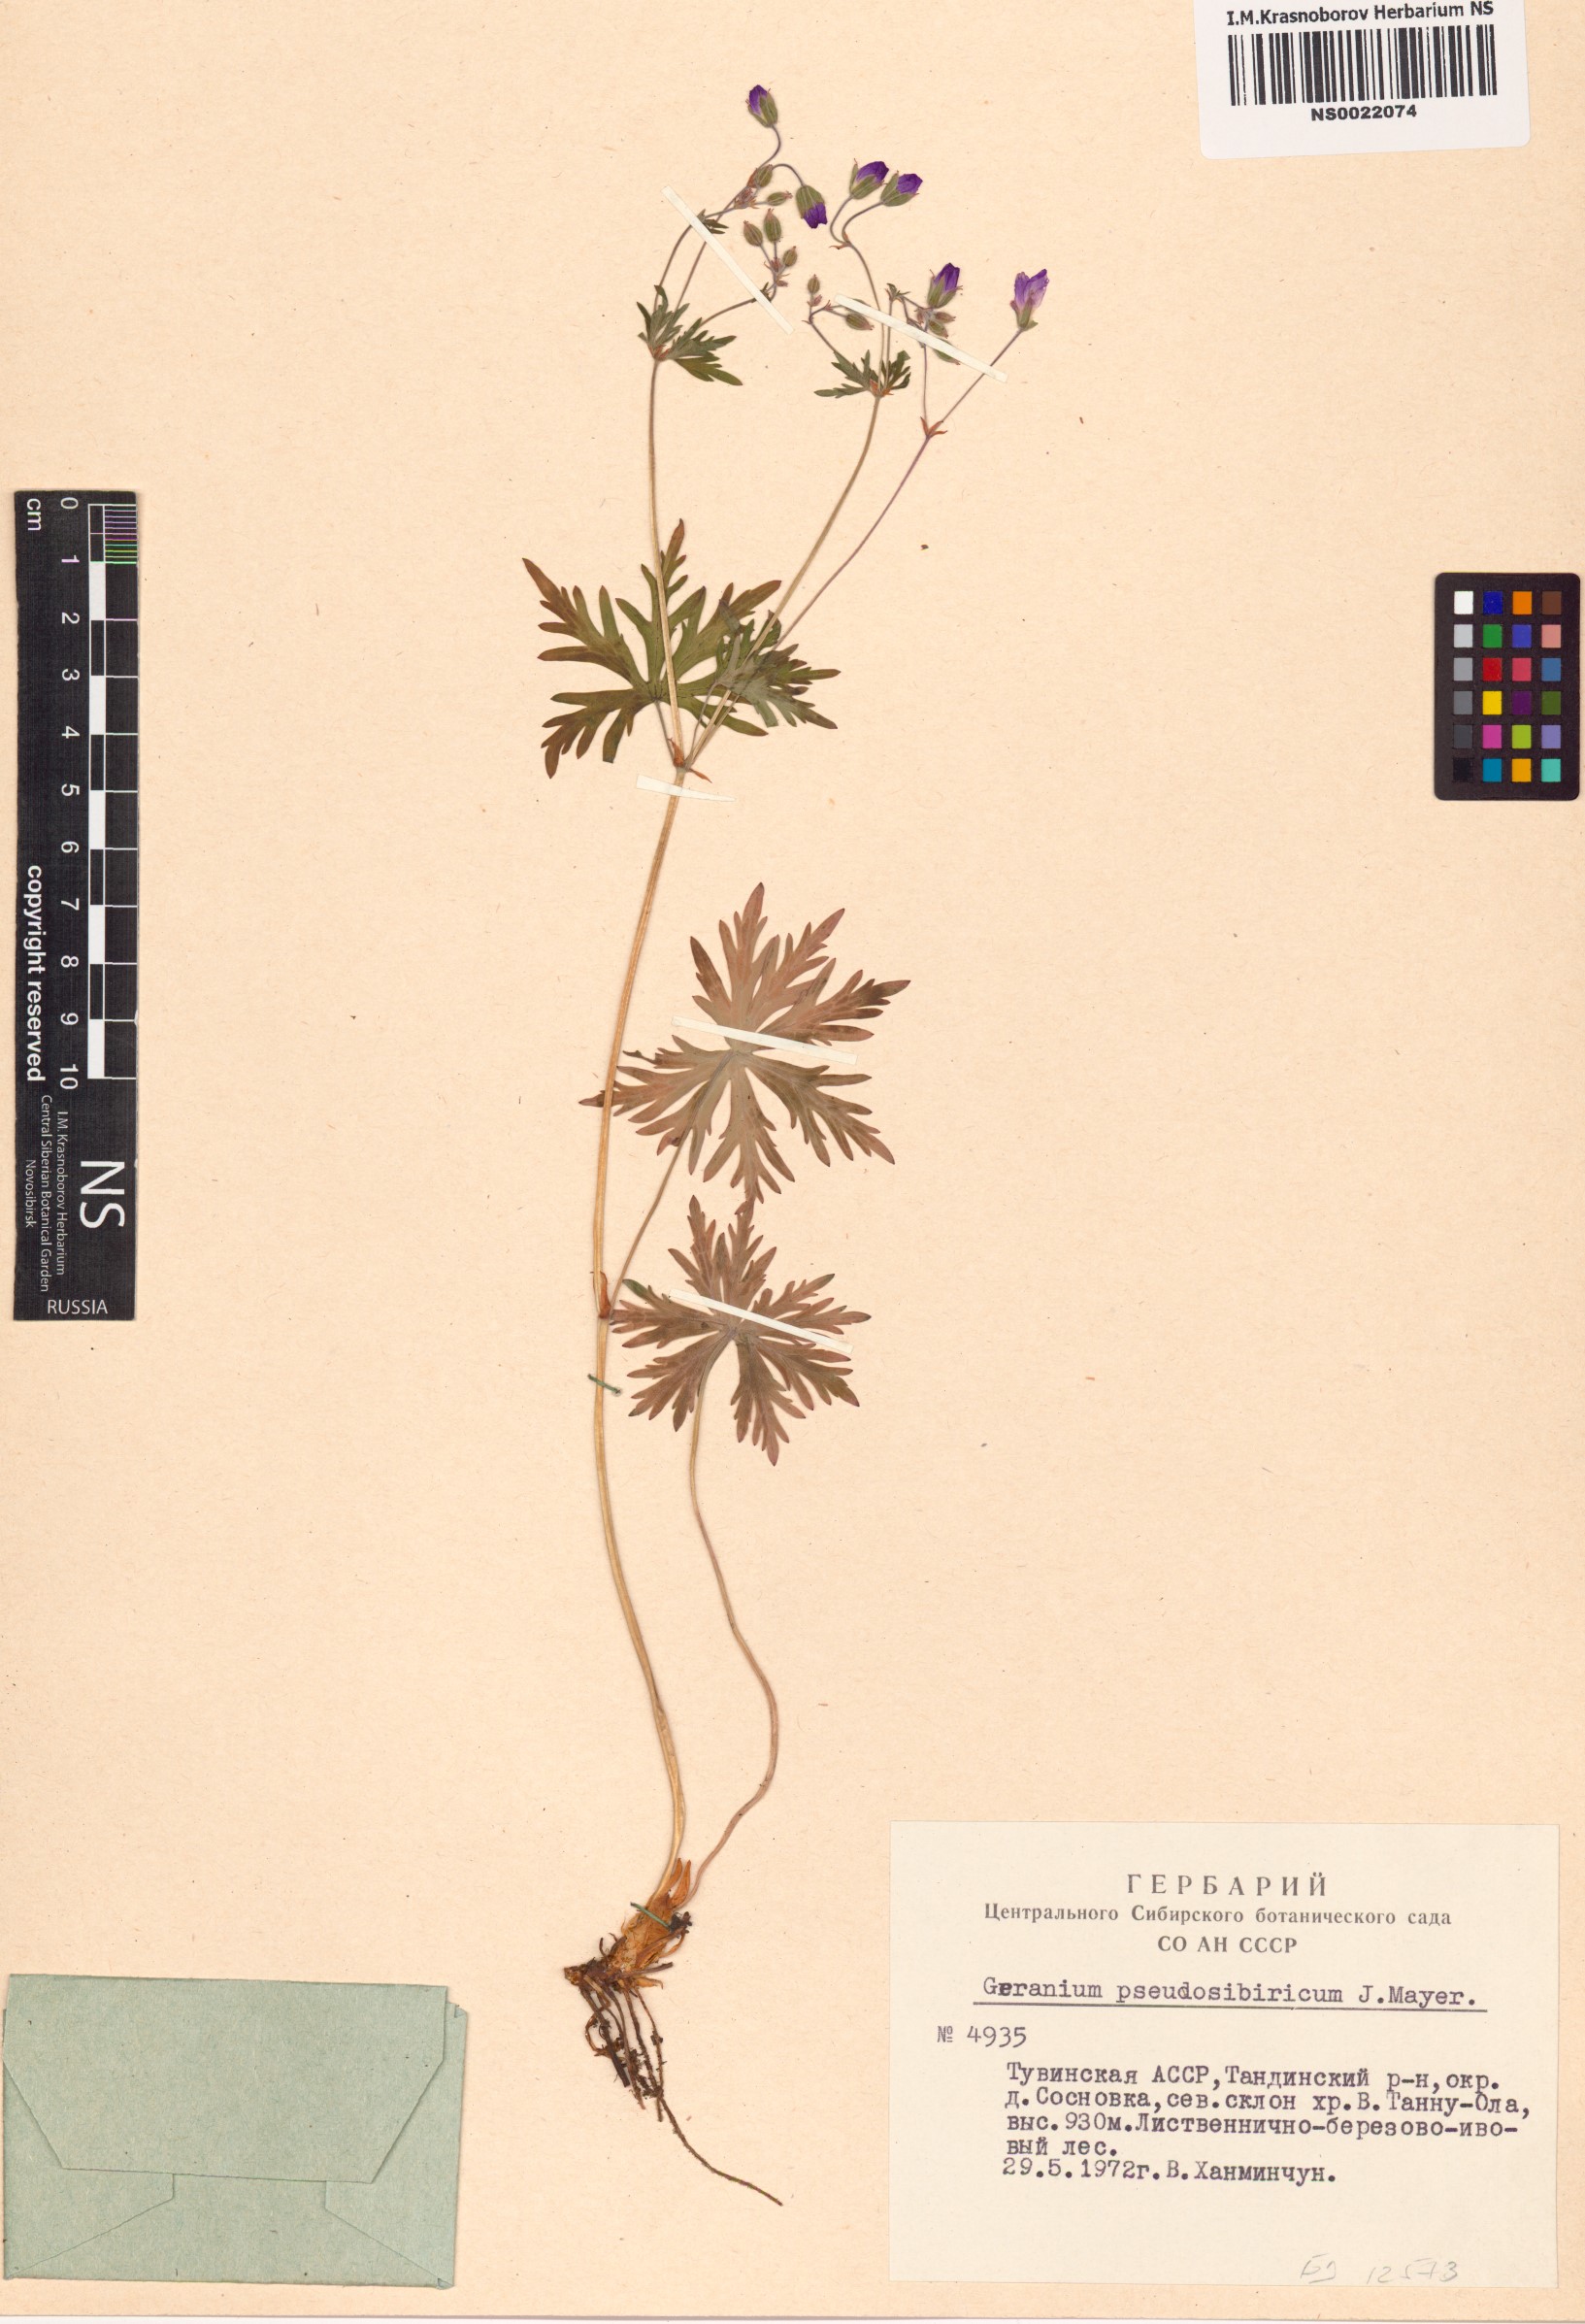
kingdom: Plantae
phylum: Tracheophyta
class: Magnoliopsida
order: Geraniales
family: Geraniaceae
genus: Geranium
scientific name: Geranium pseudosibiricum
